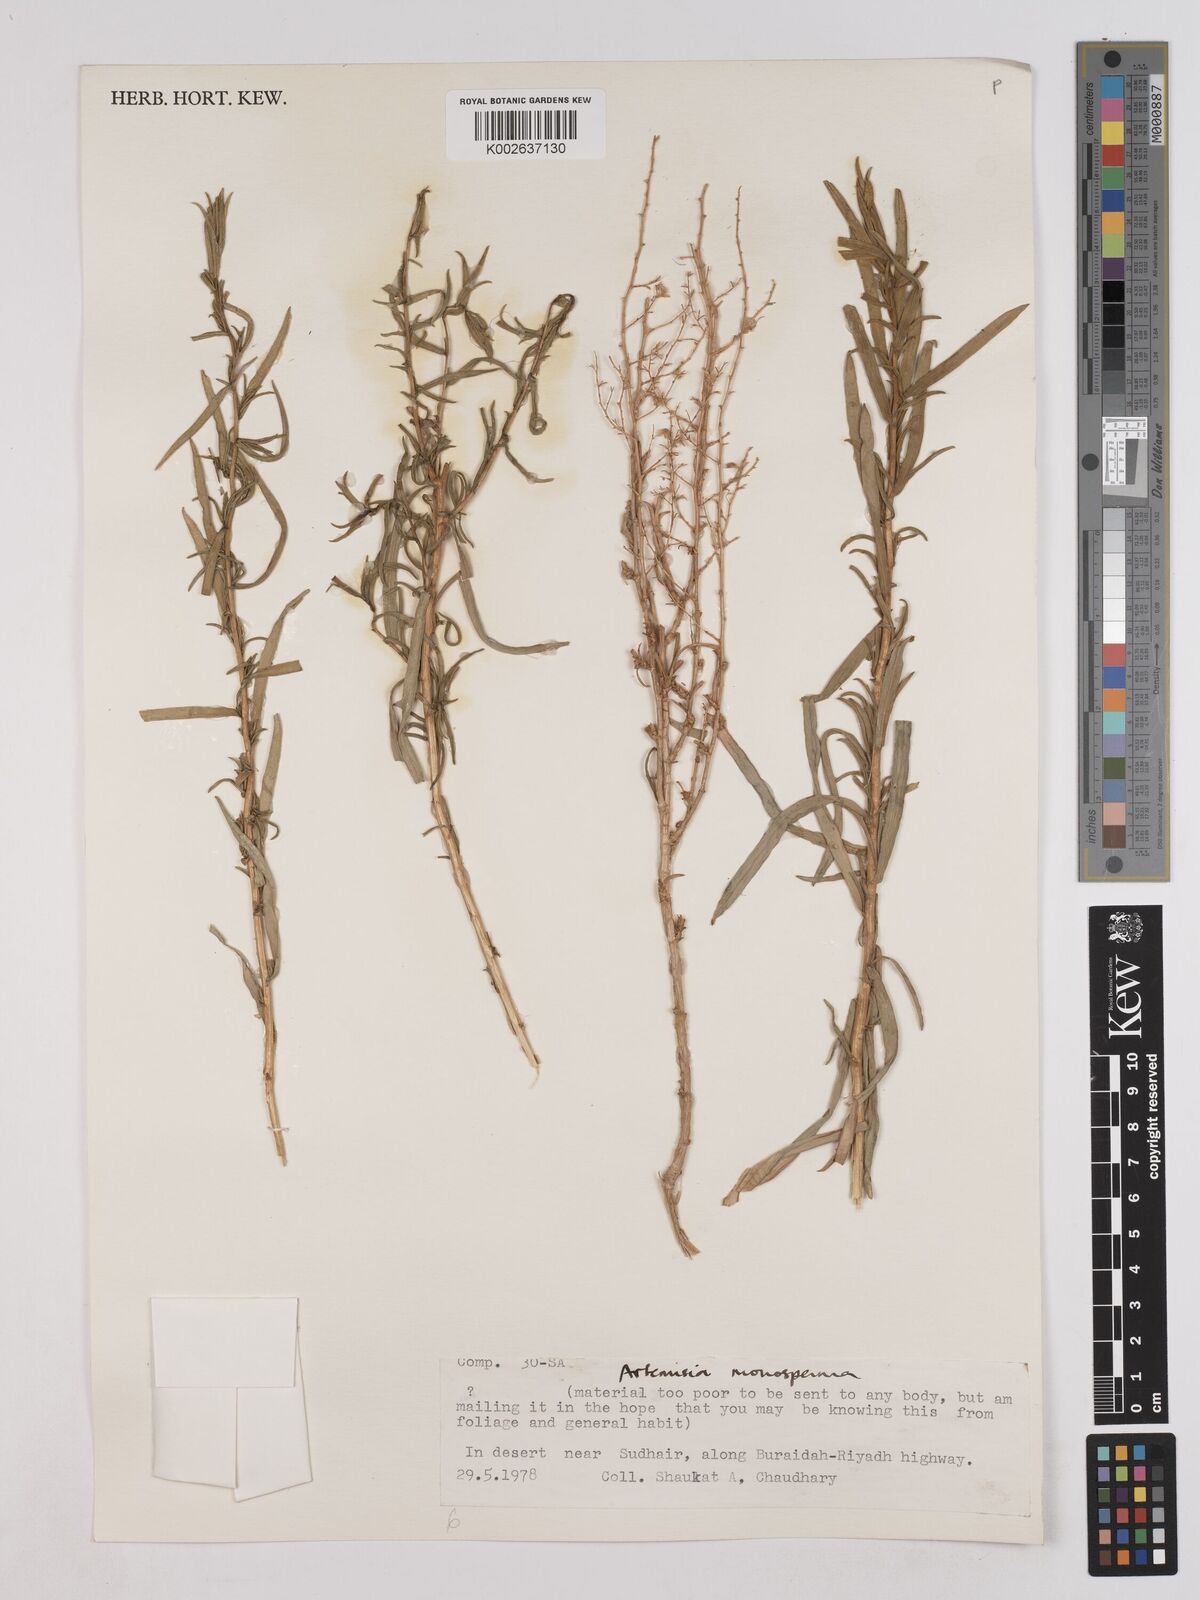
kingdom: Plantae
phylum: Tracheophyta
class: Magnoliopsida
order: Asterales
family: Asteraceae
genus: Artemisia
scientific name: Artemisia monosperma
